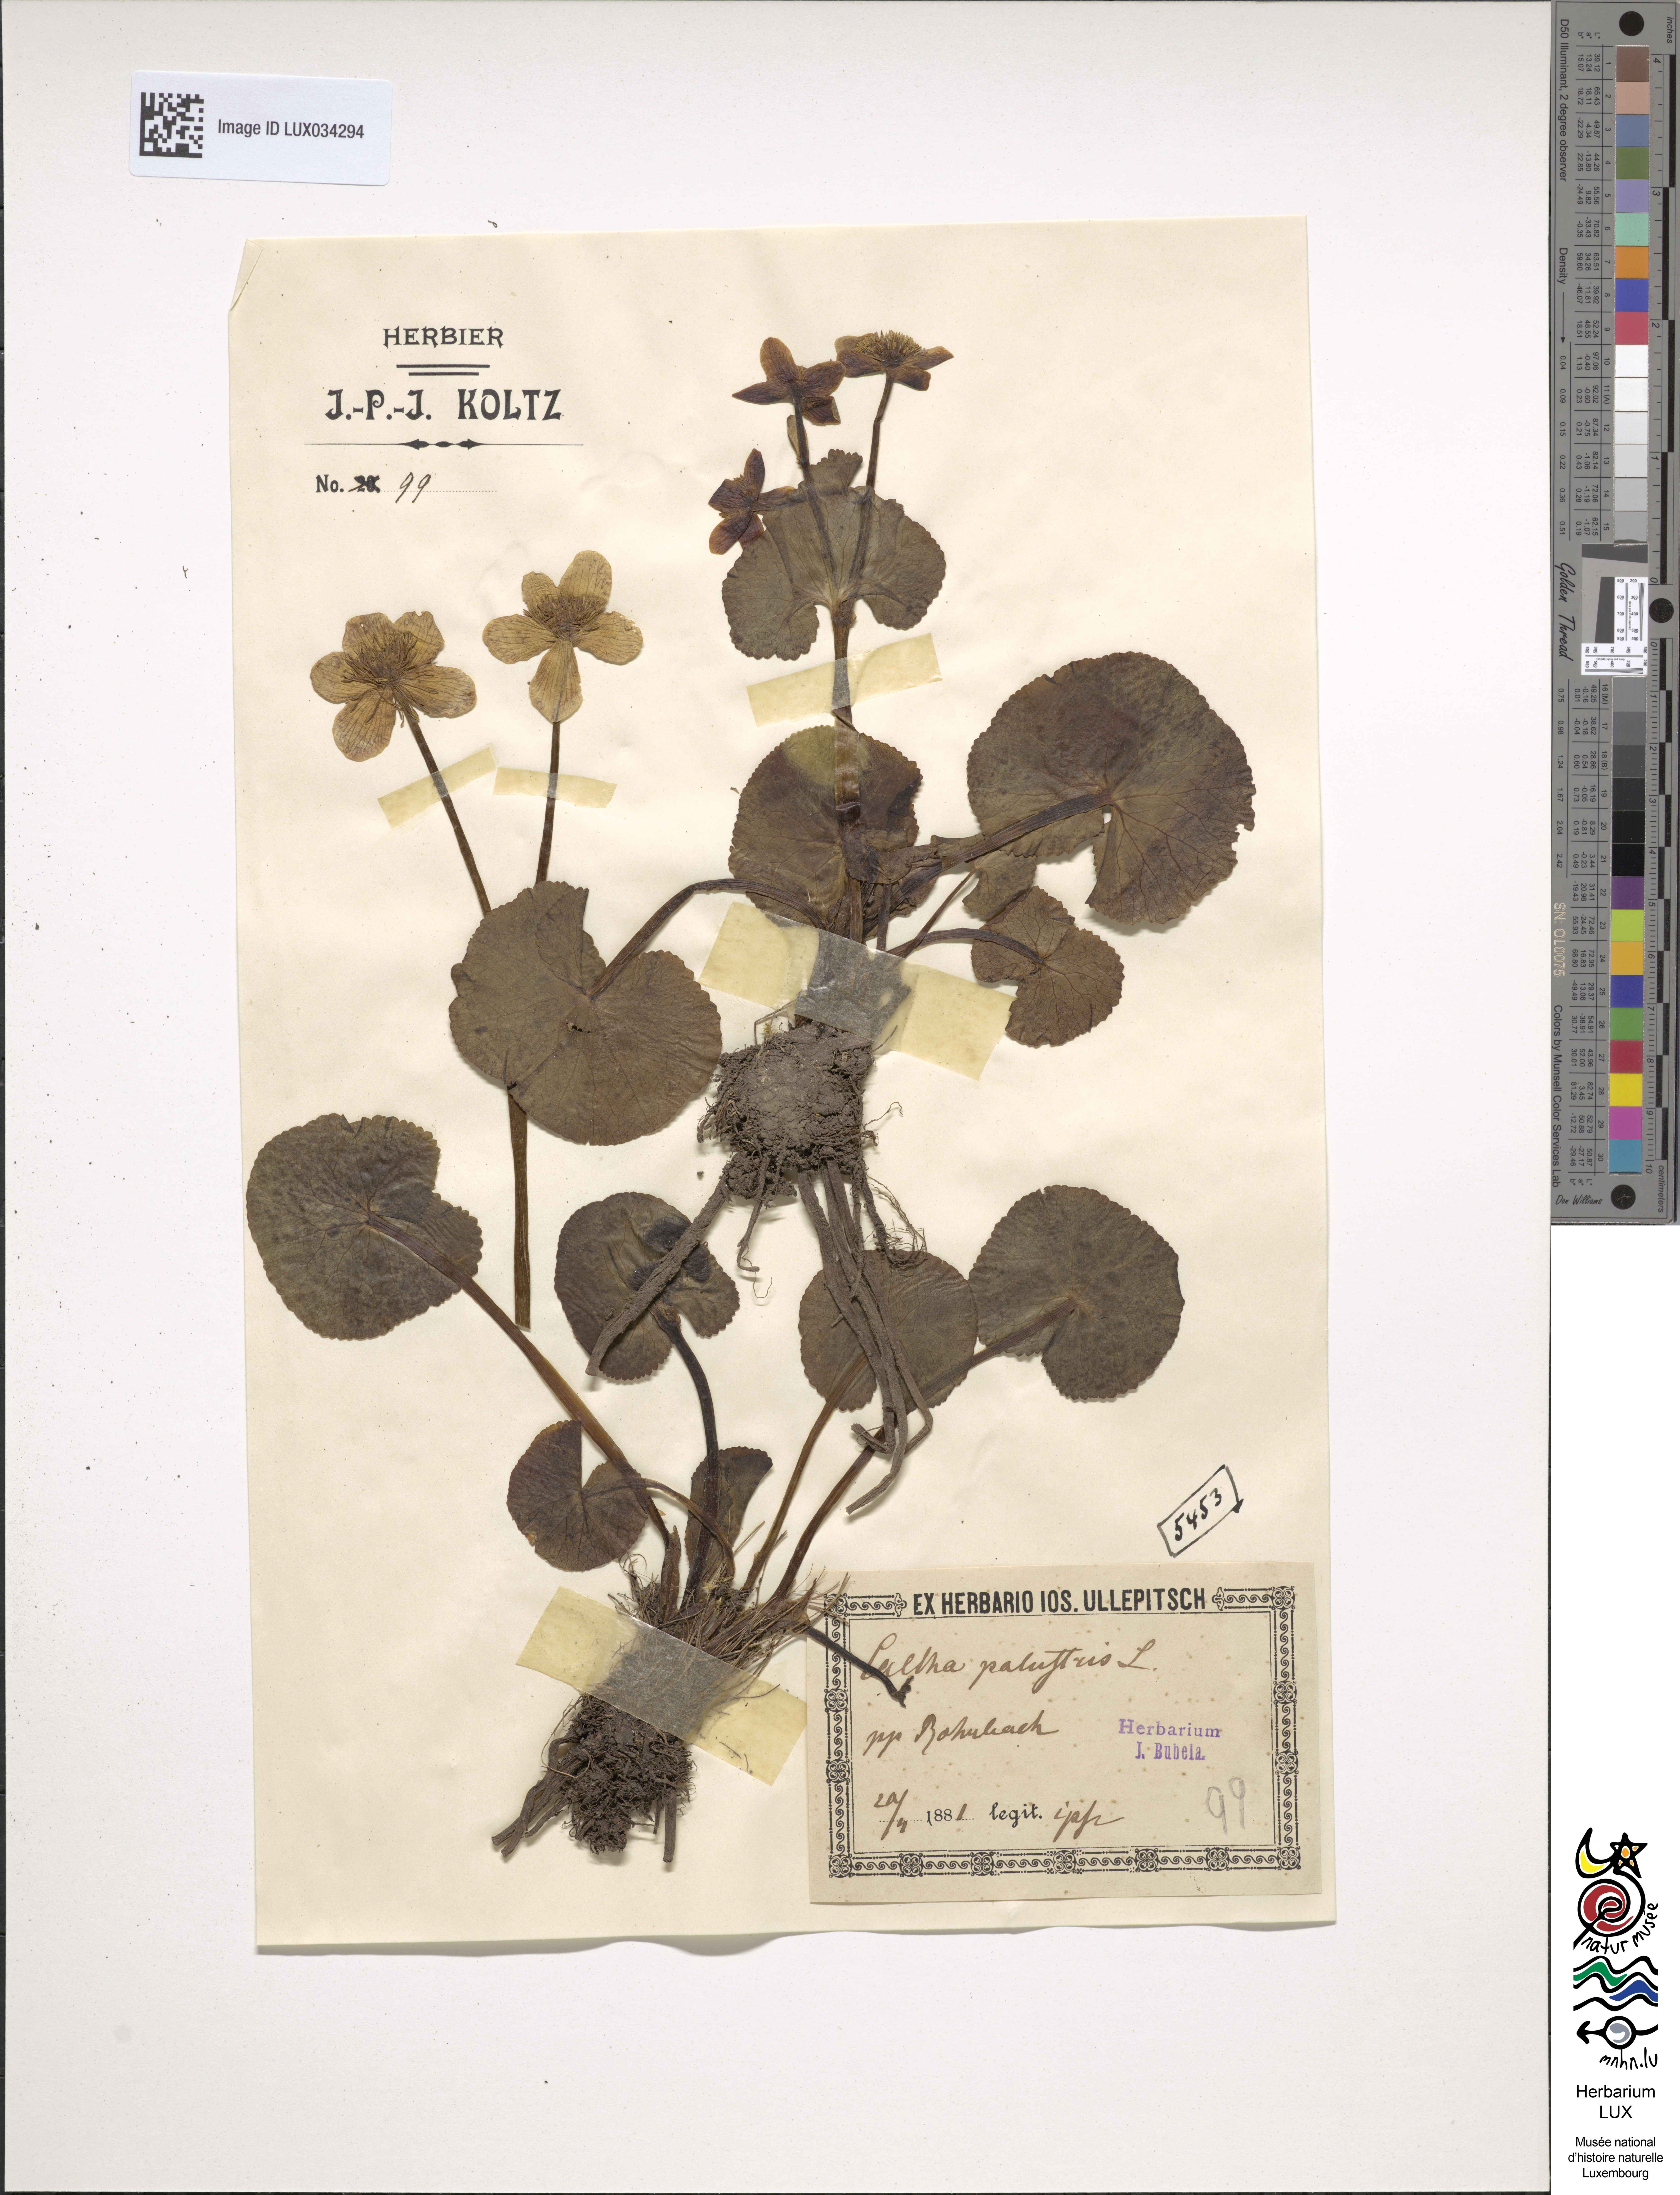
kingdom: Plantae
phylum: Tracheophyta
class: Magnoliopsida
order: Ranunculales
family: Ranunculaceae
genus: Caltha
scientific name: Caltha palustris
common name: Marsh marigold
